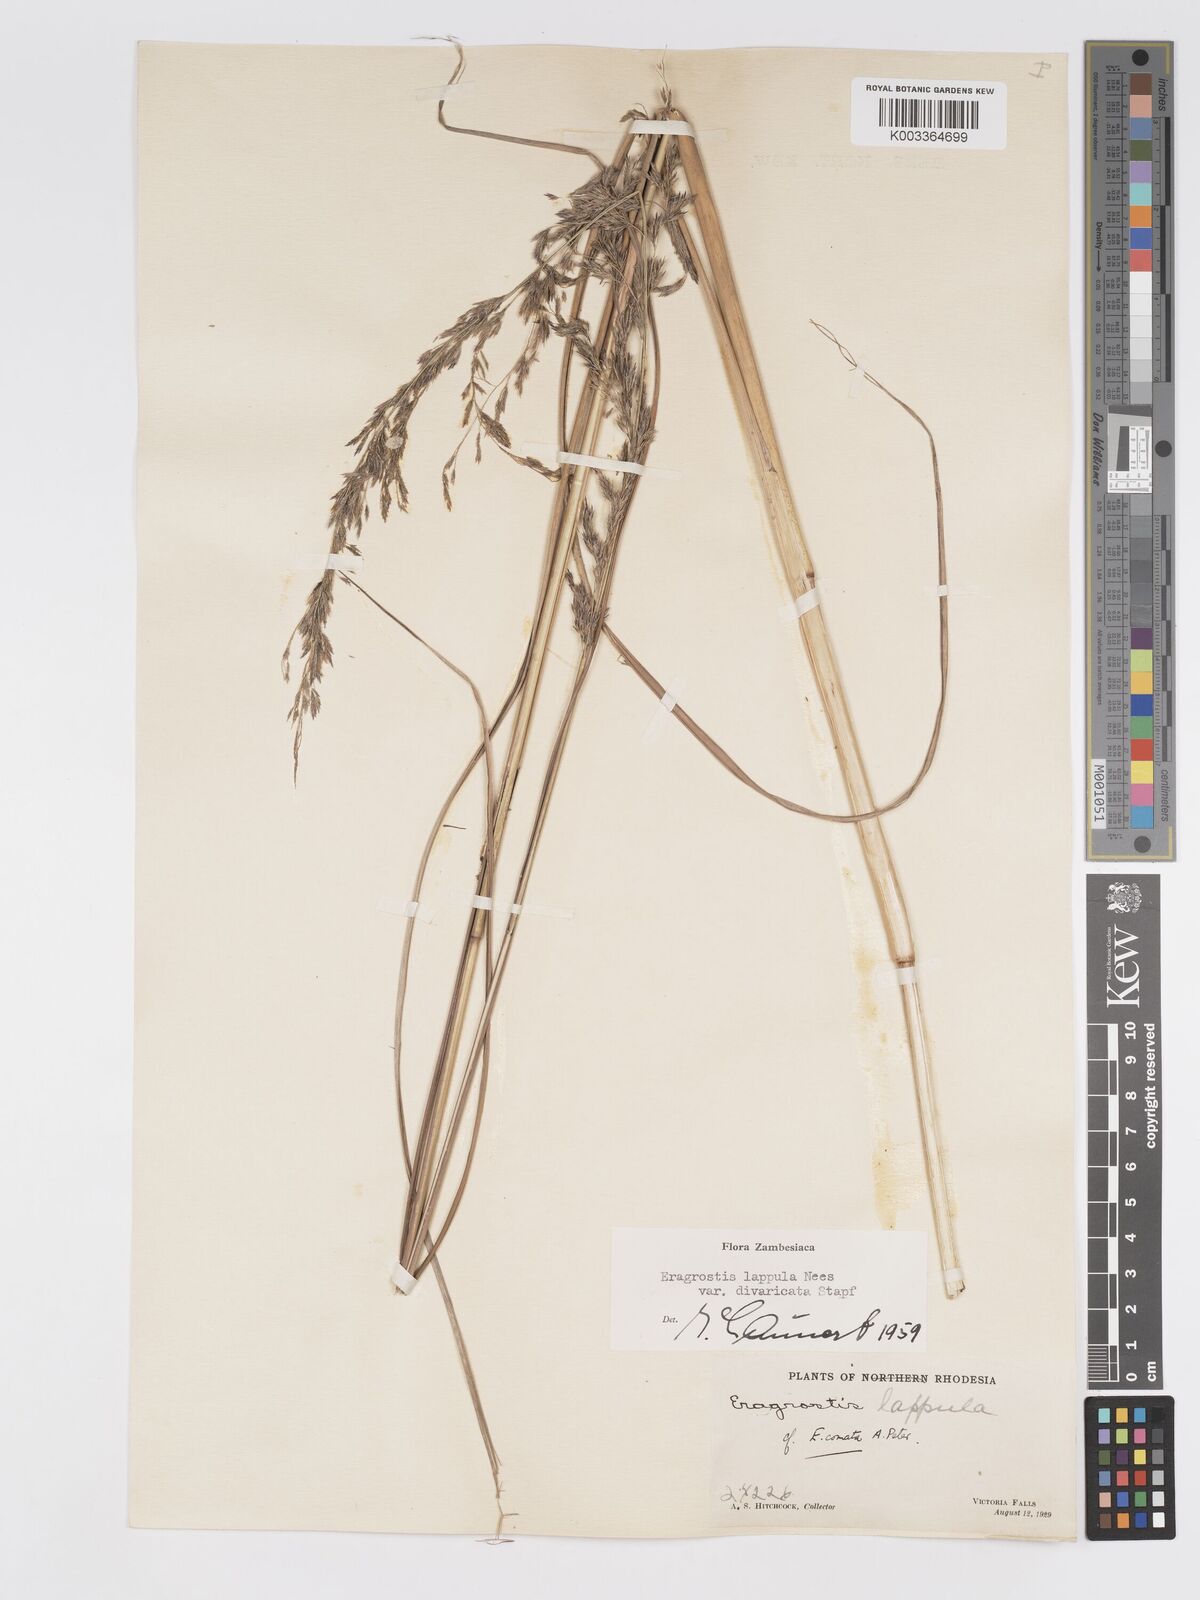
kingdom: Plantae
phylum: Tracheophyta
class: Liliopsida
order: Poales
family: Poaceae
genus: Eragrostis
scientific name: Eragrostis lappula
